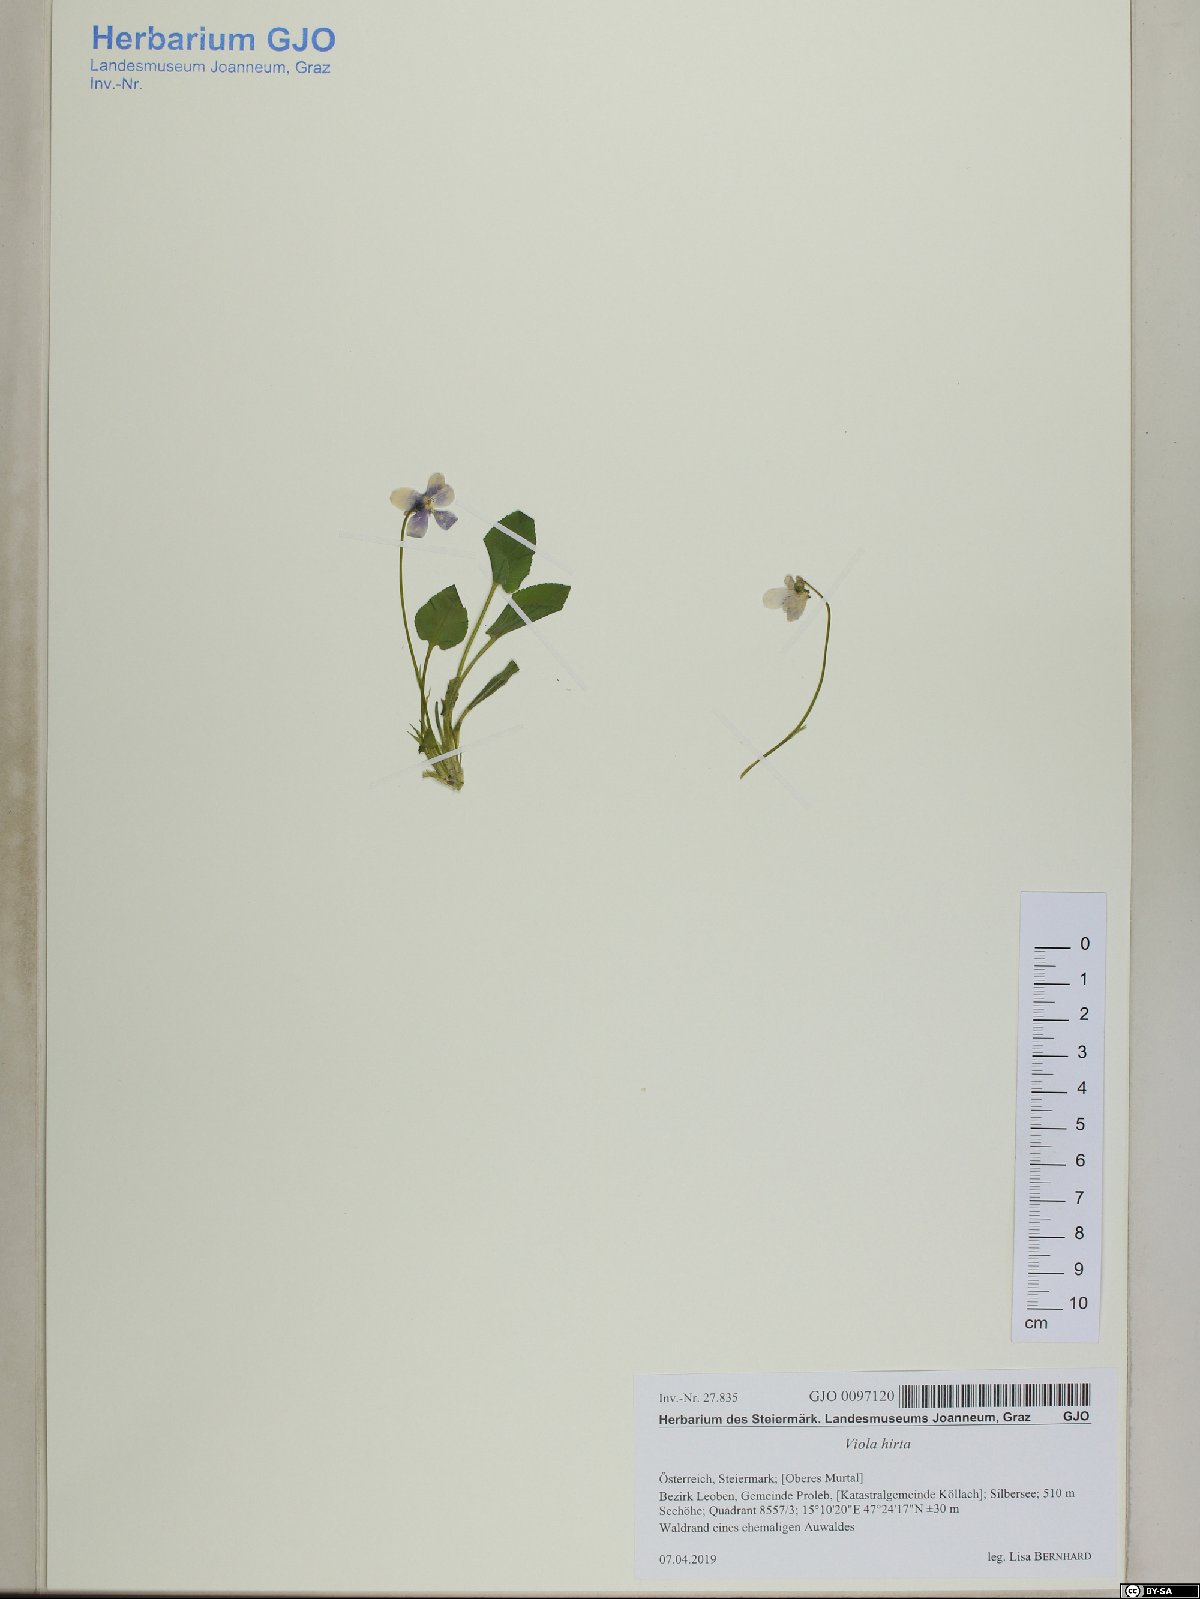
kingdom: Plantae
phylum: Tracheophyta
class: Magnoliopsida
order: Malpighiales
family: Violaceae
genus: Viola
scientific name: Viola hirta
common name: Hairy violet
